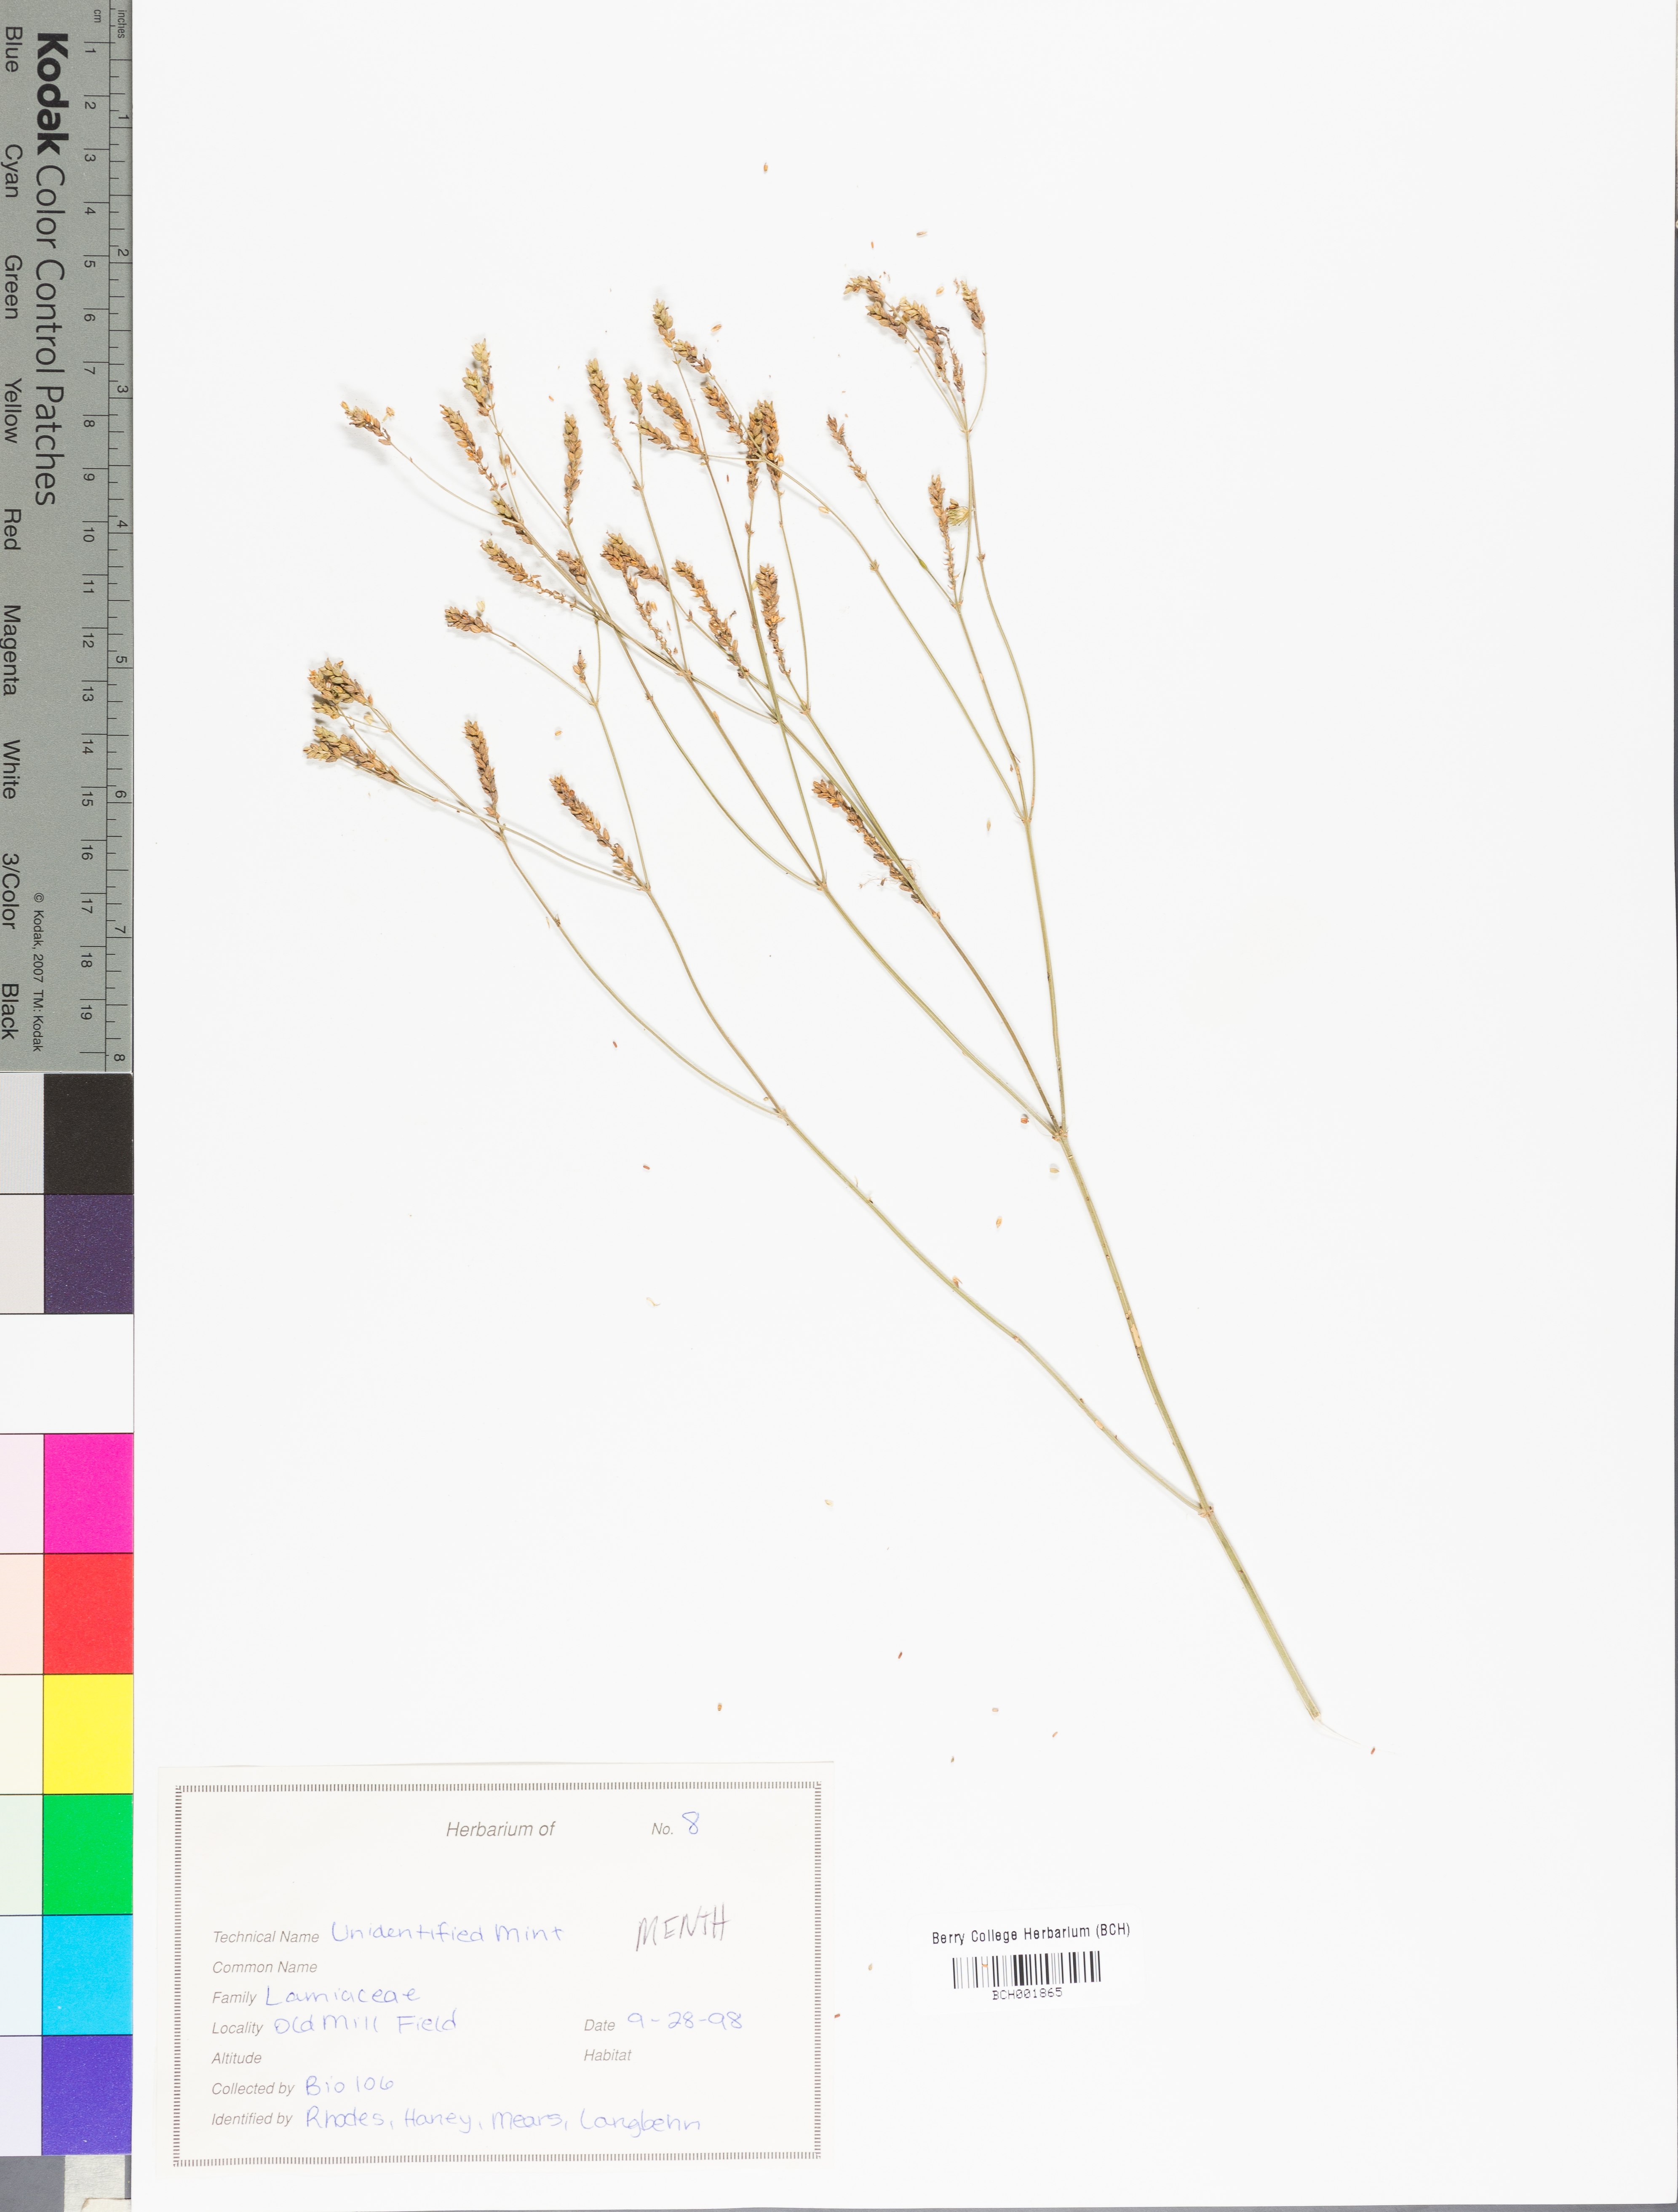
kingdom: Plantae
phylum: Tracheophyta
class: Magnoliopsida
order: Lamiales
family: Lamiaceae
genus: Mentha
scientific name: Mentha
